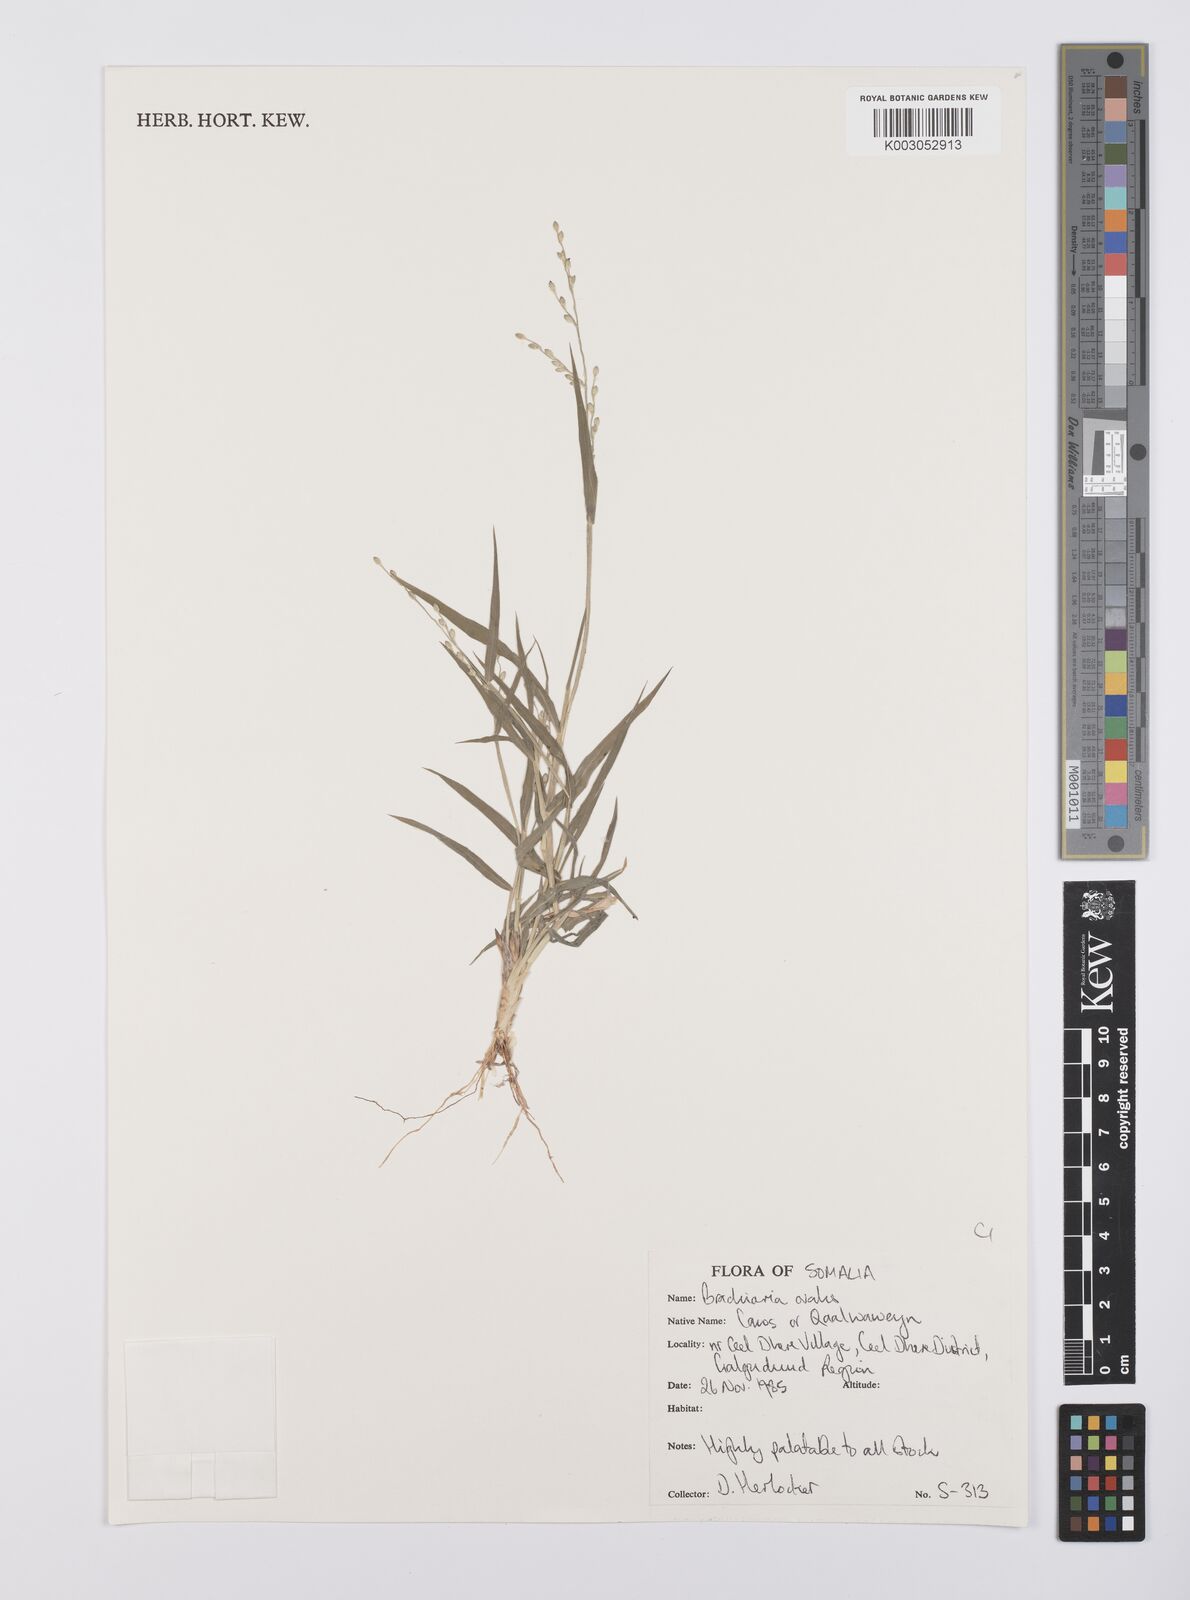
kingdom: Plantae
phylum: Tracheophyta
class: Liliopsida
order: Poales
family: Poaceae
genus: Urochloa
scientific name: Urochloa ovalis
